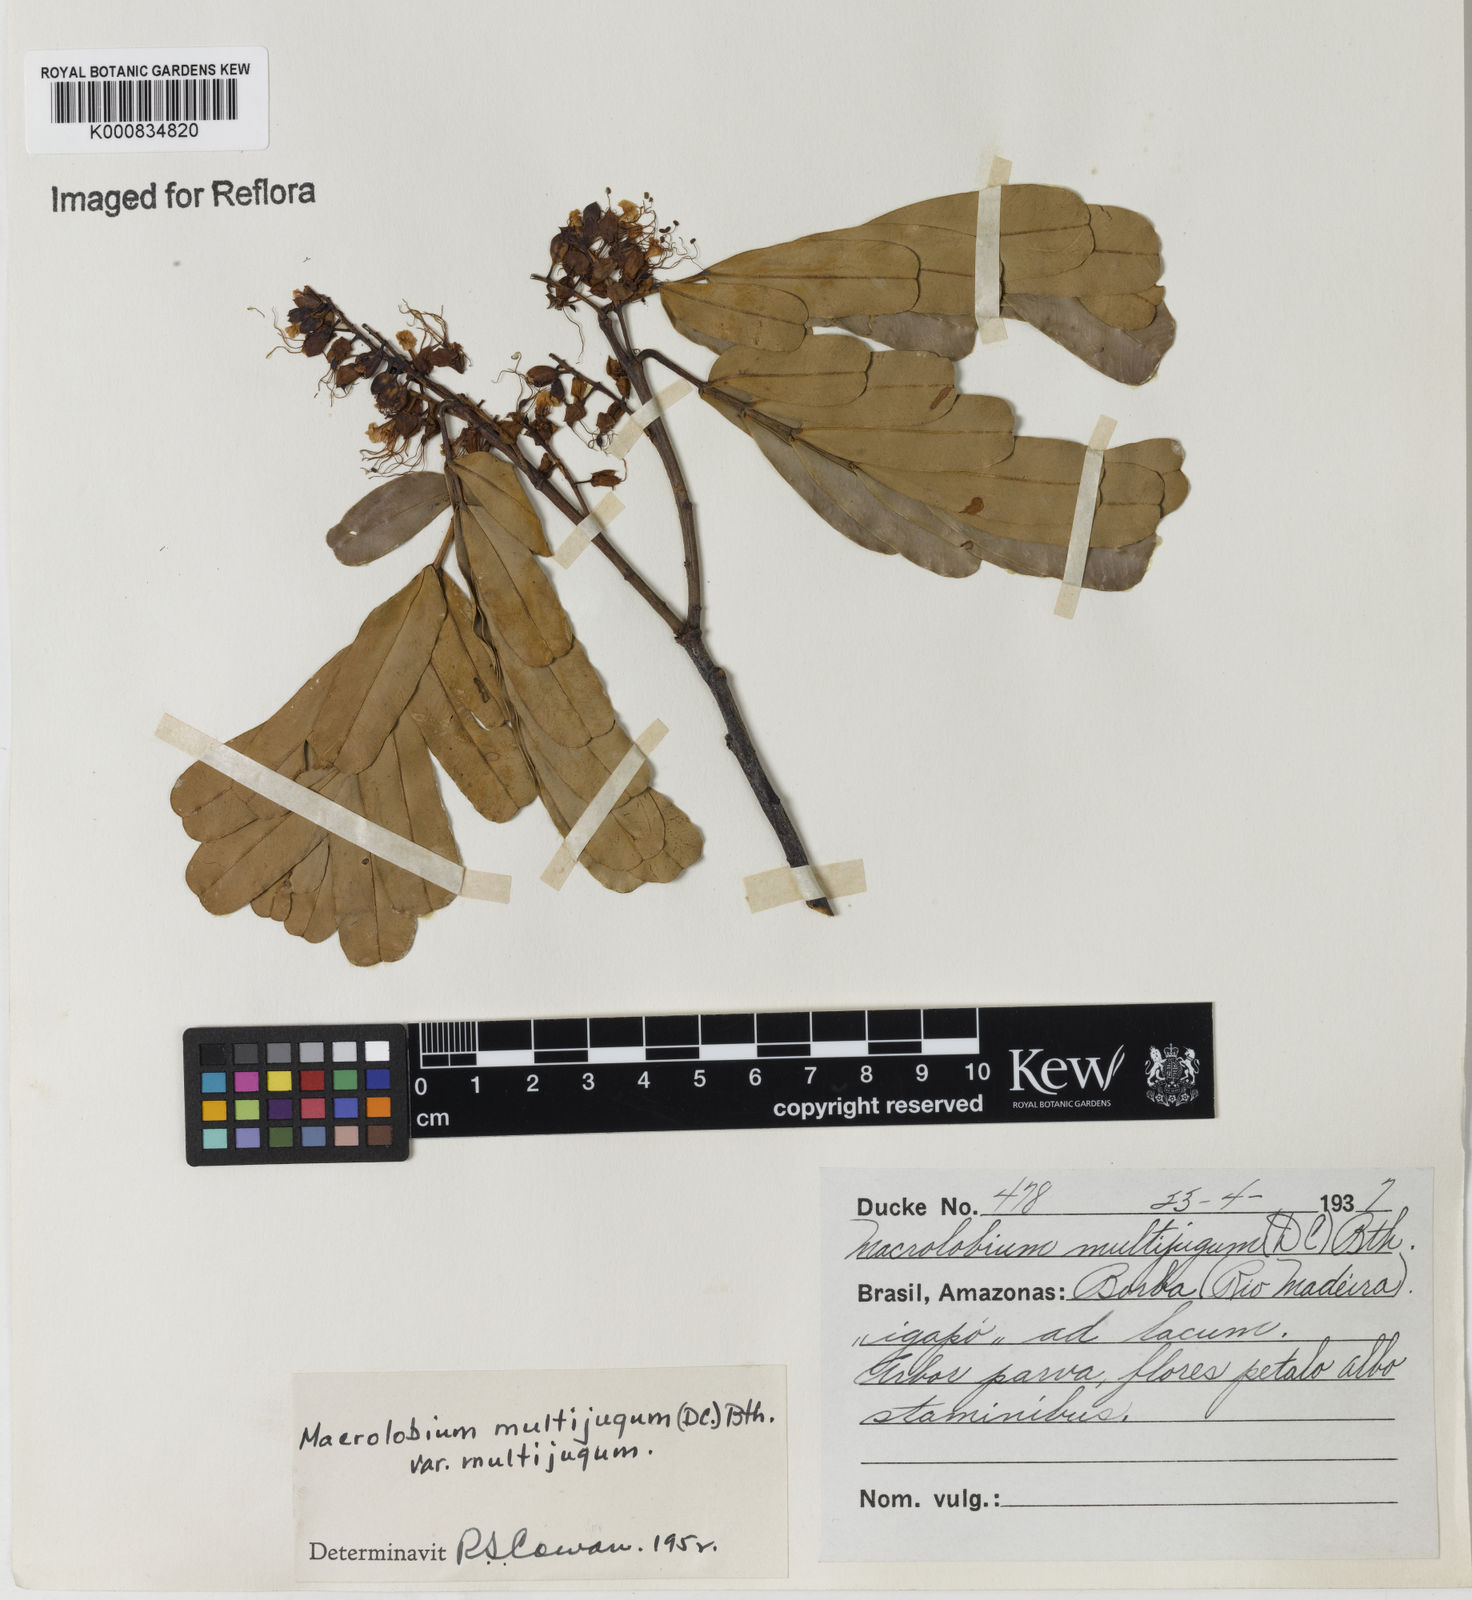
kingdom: Plantae
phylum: Tracheophyta
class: Magnoliopsida
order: Fabales
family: Fabaceae
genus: Macrolobium
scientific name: Macrolobium multijugum
